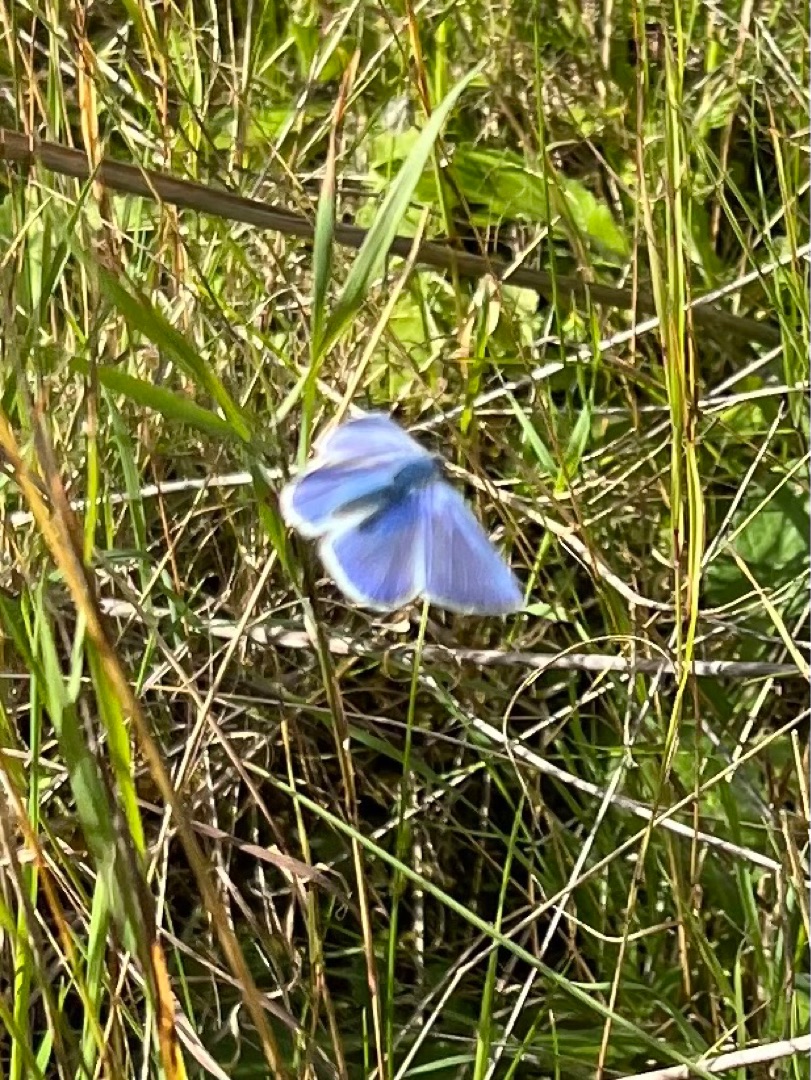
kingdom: Animalia
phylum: Arthropoda
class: Insecta
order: Lepidoptera
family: Lycaenidae
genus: Polyommatus
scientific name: Polyommatus icarus
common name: Almindelig blåfugl
